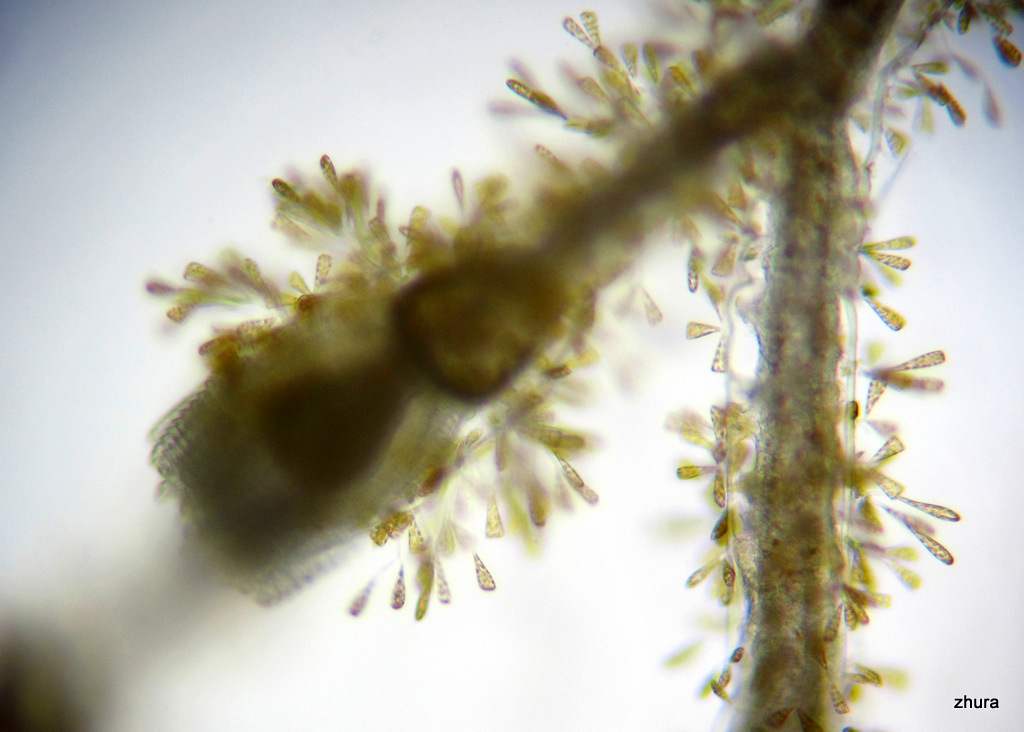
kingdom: Animalia
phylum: Cnidaria
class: Hydrozoa
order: Leptothecata
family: Campanulariidae
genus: Obelia
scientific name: Obelia
